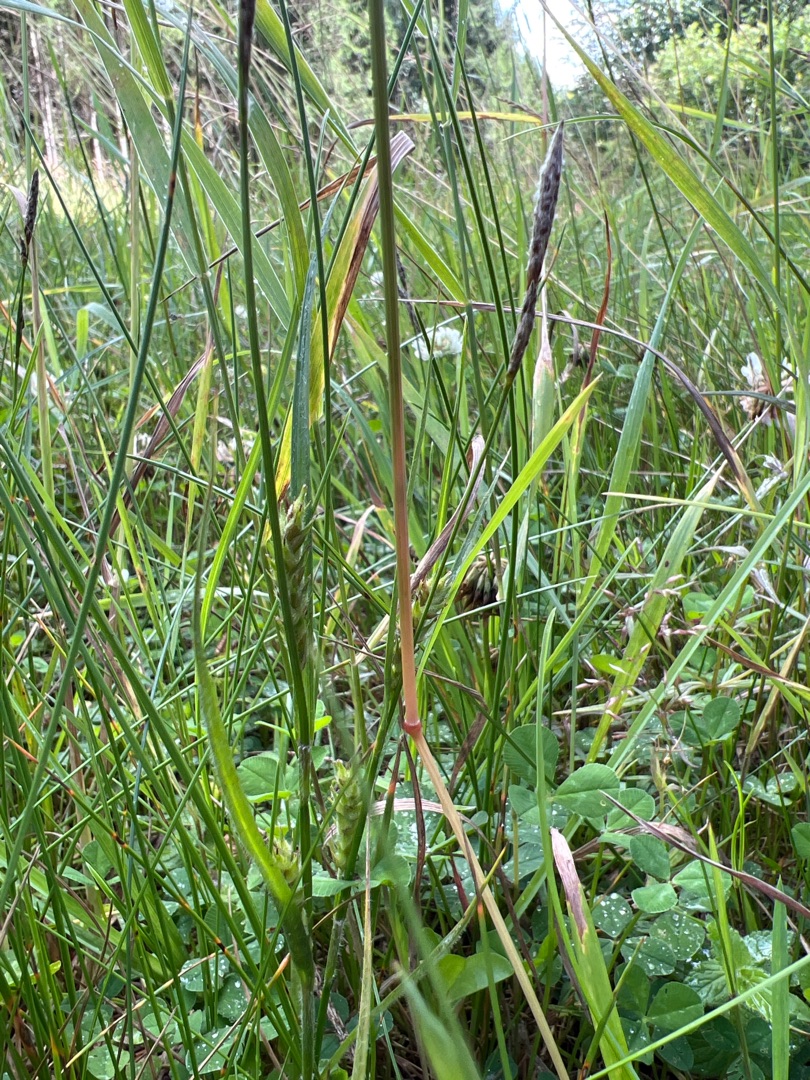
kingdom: Plantae
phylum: Tracheophyta
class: Liliopsida
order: Poales
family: Cyperaceae
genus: Carex
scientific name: Carex hirta
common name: Håret star
